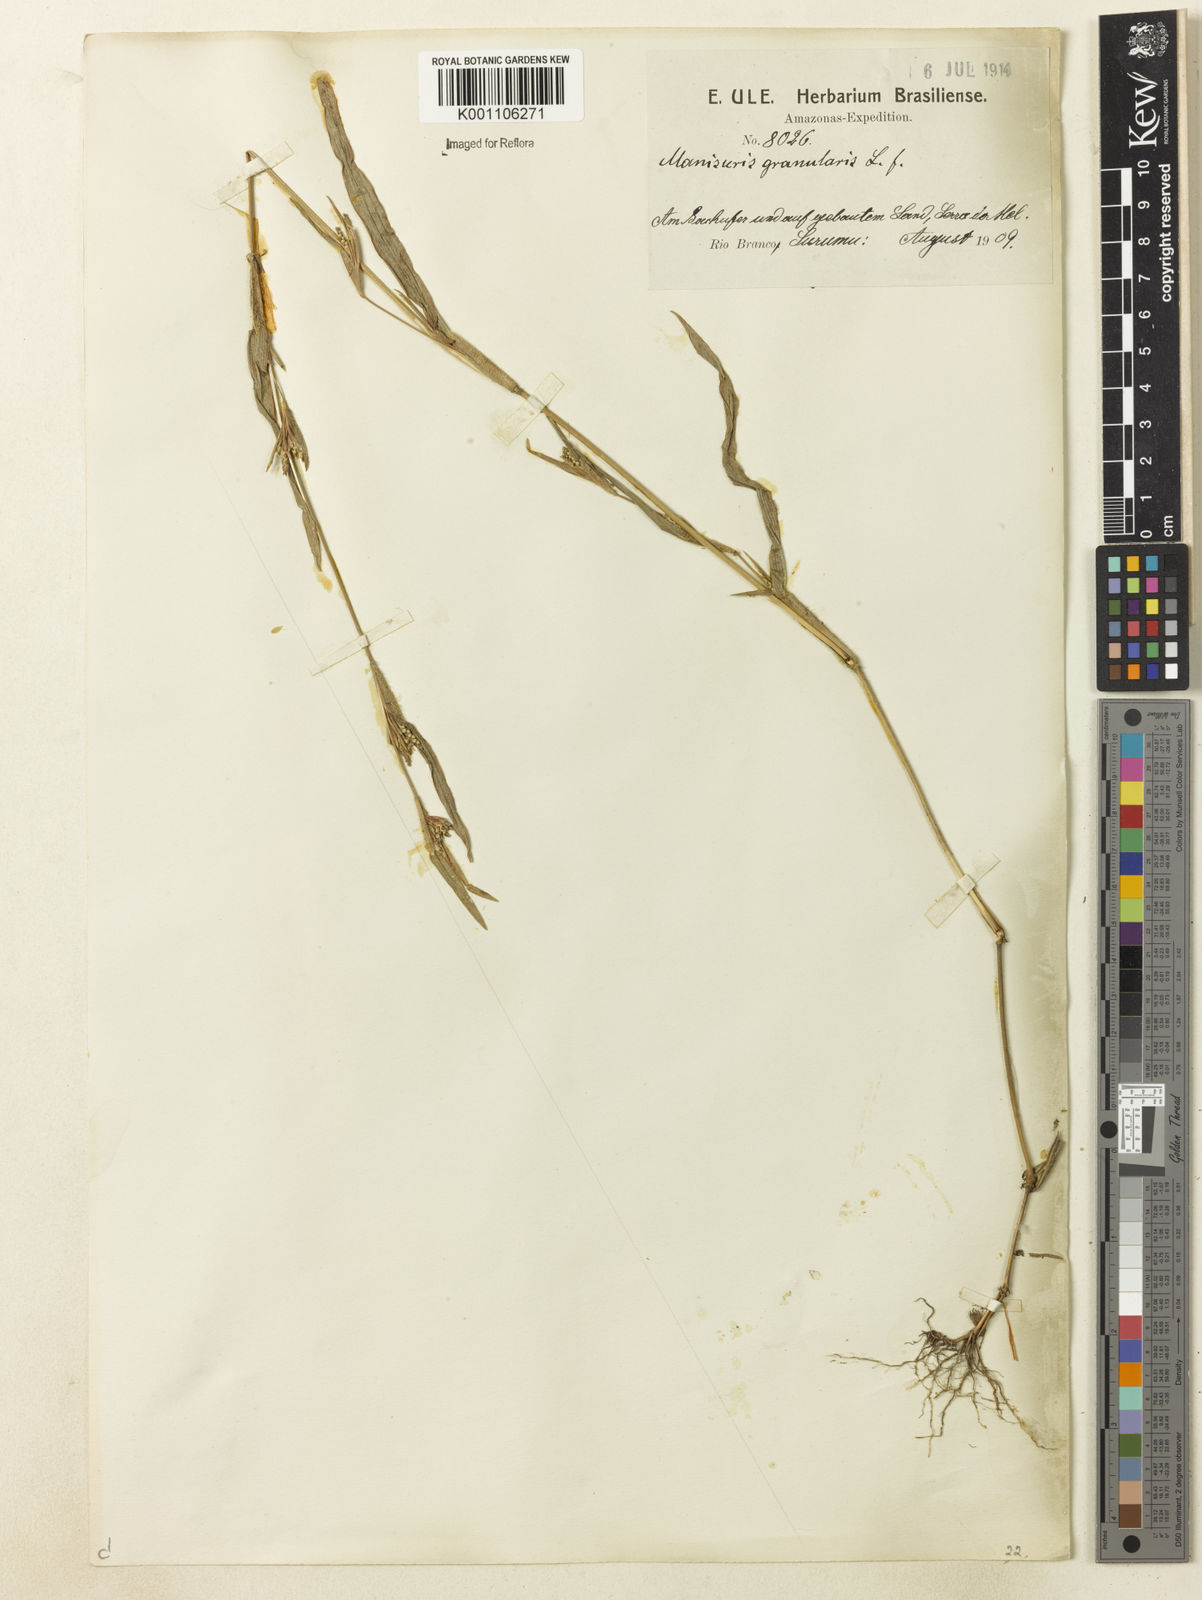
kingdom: Plantae
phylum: Tracheophyta
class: Liliopsida
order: Poales
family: Poaceae
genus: Hackelochloa
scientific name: Hackelochloa granularis
